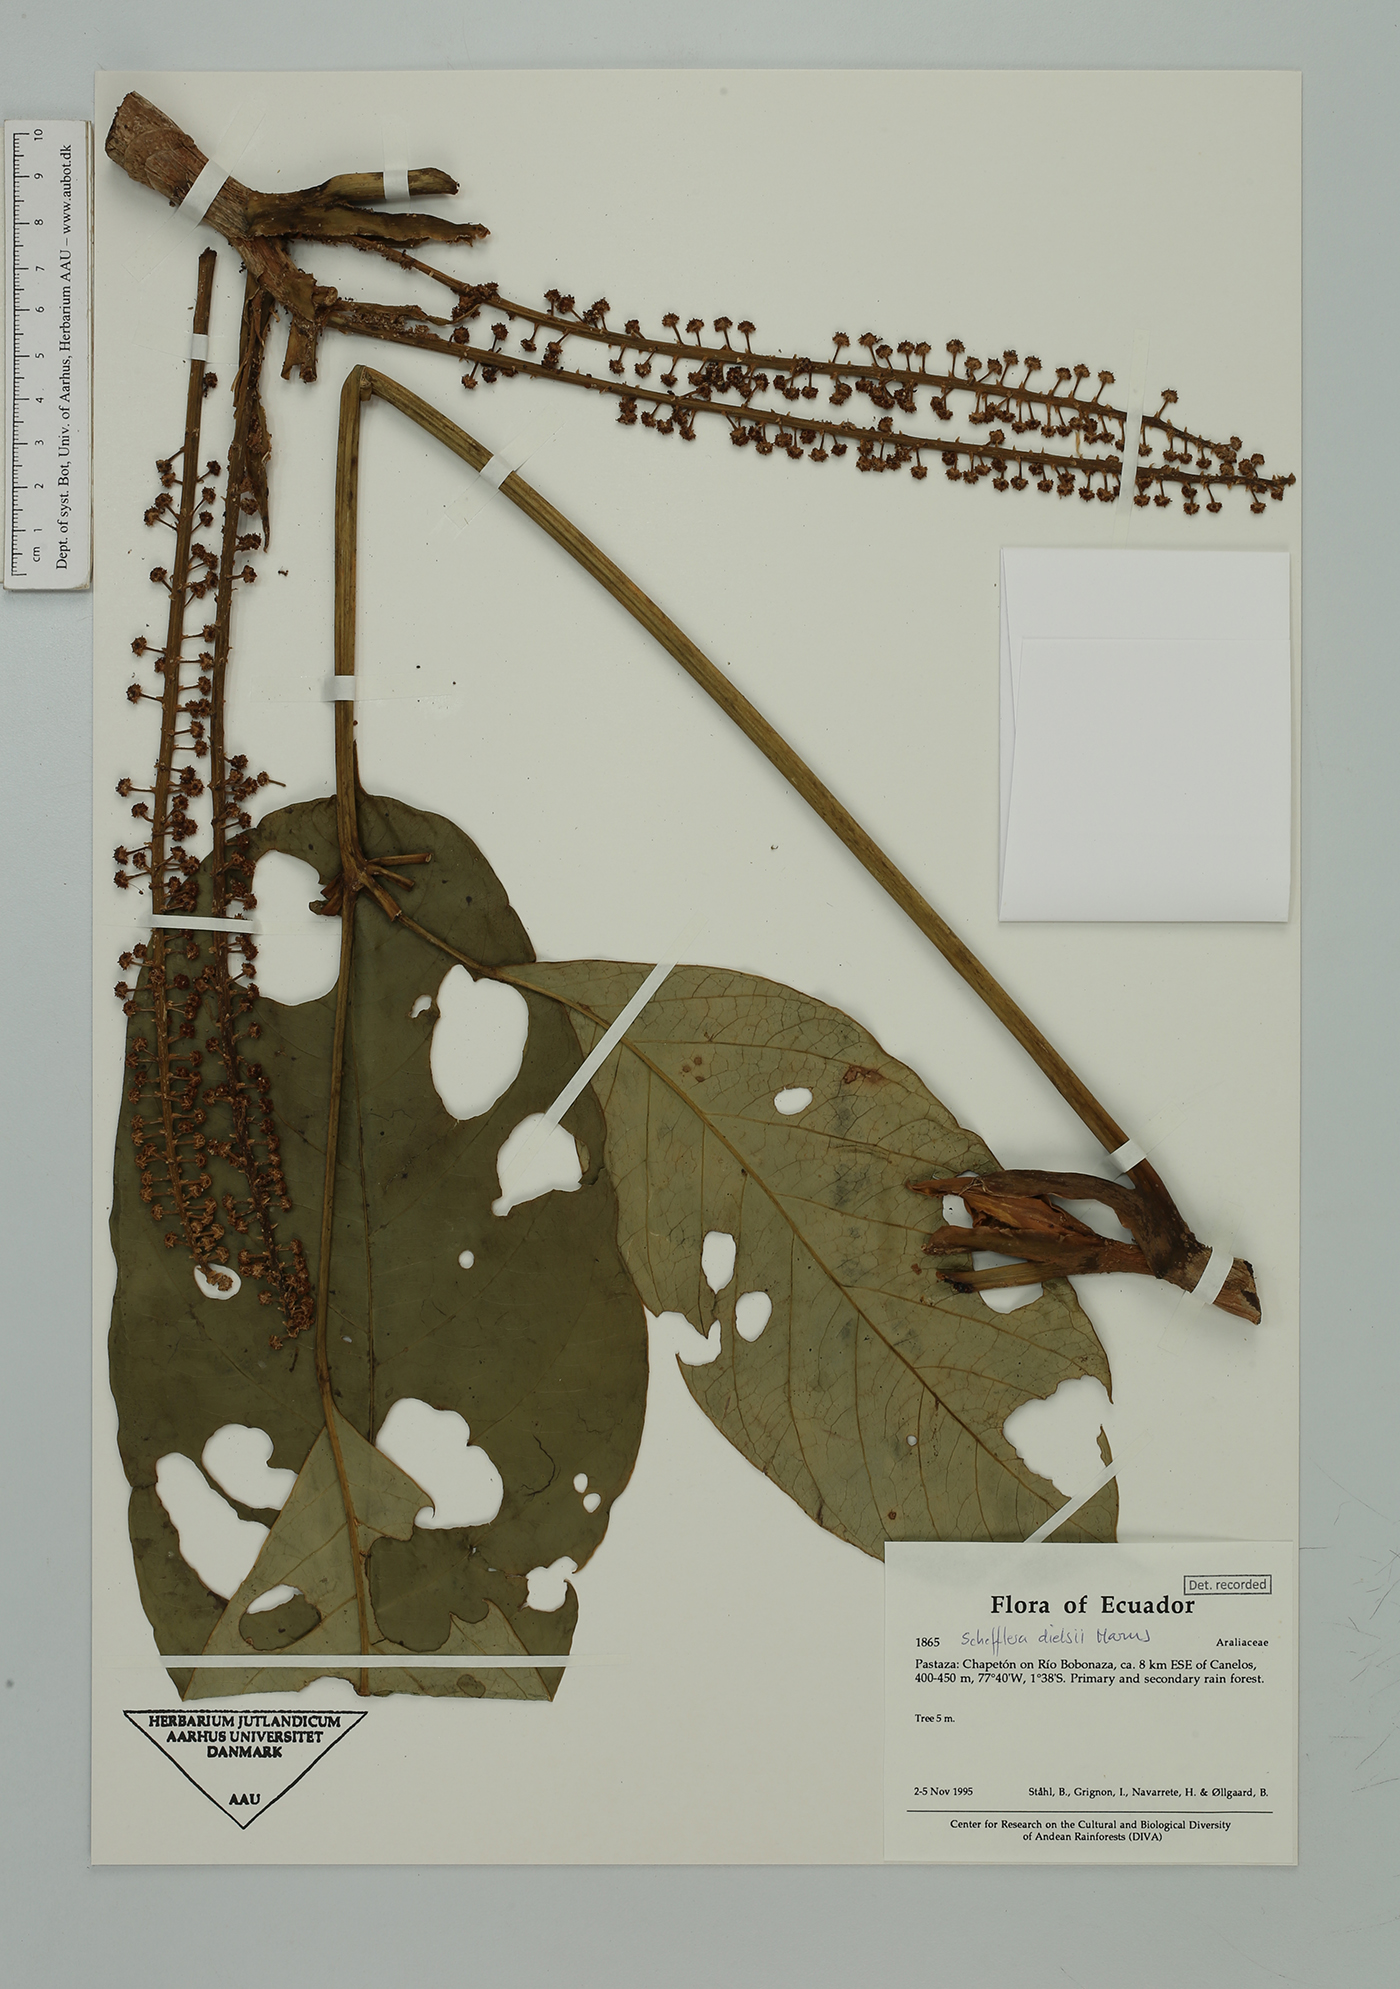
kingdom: Plantae
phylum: Tracheophyta
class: Magnoliopsida
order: Apiales
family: Araliaceae
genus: Sciodaphyllum
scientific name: Sciodaphyllum dielsii
